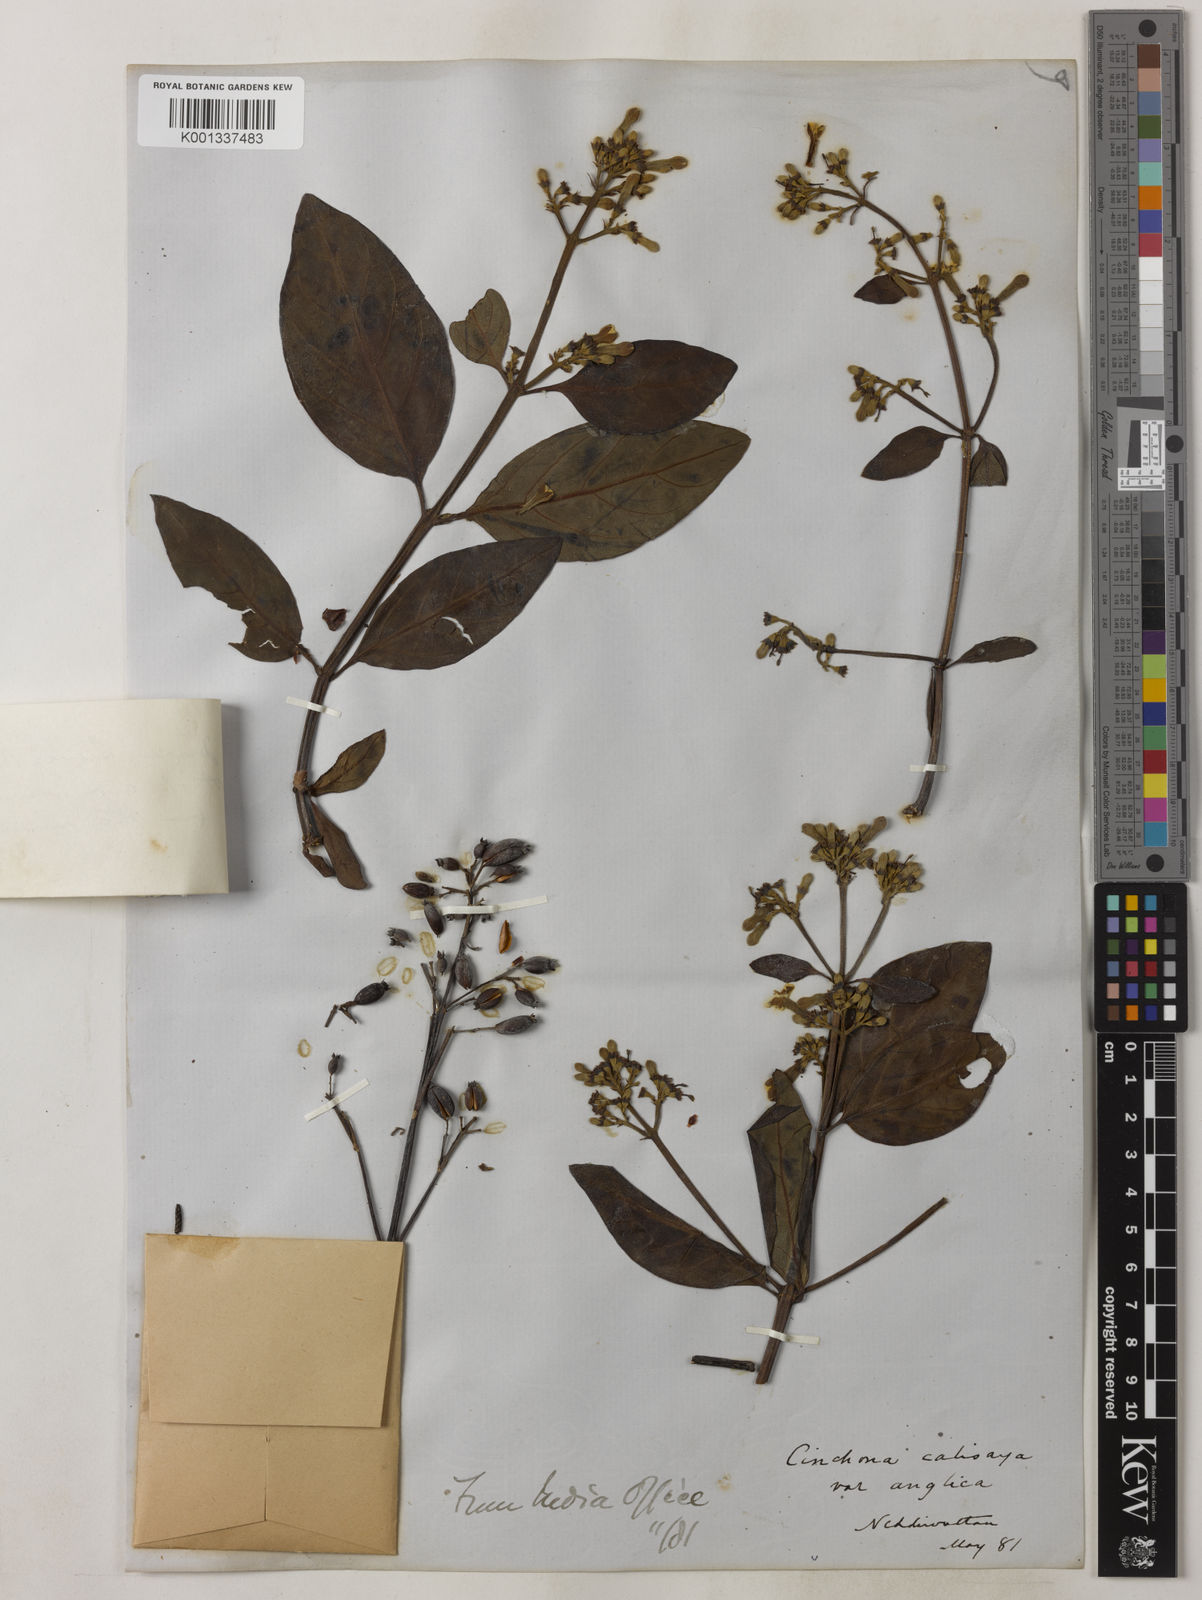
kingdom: Plantae
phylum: Tracheophyta
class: Magnoliopsida
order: Gentianales
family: Rubiaceae
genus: Cinchona
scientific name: Cinchona calisaya
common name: Ledgerbark
